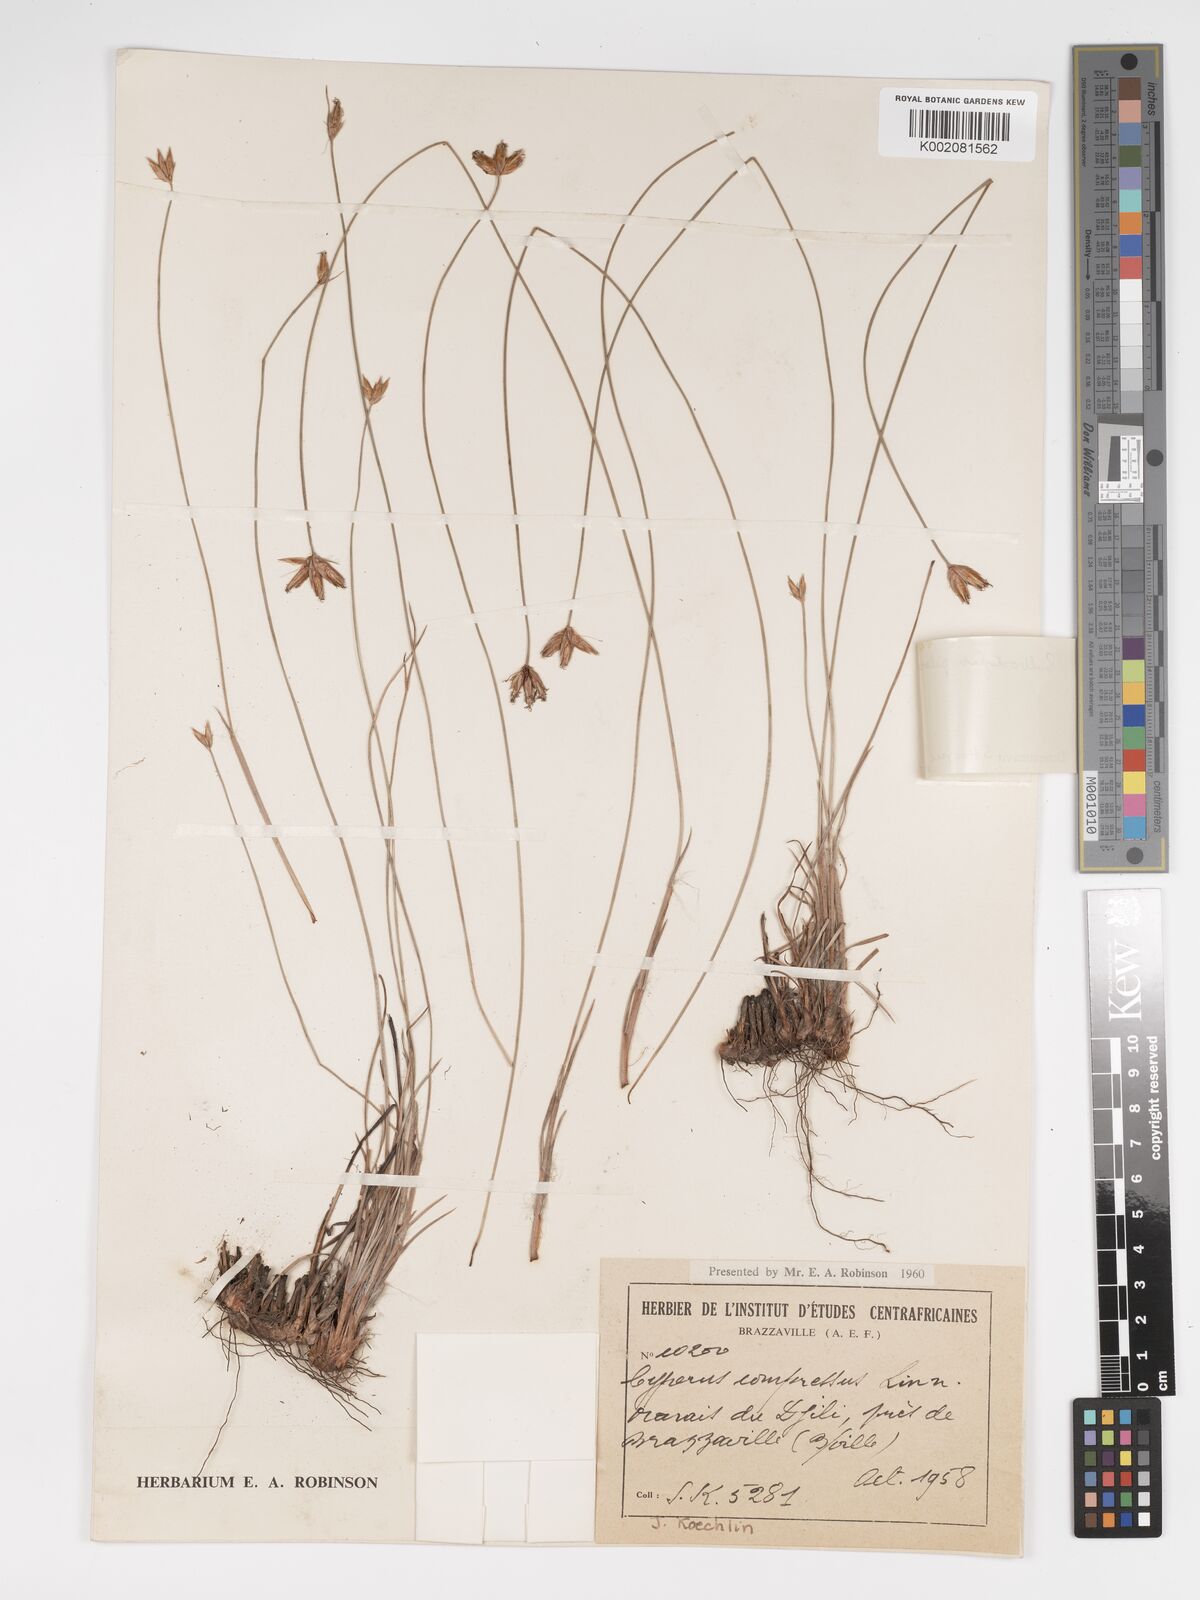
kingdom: Plantae
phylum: Tracheophyta
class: Liliopsida
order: Poales
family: Cyperaceae
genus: Bulbostylis
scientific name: Bulbostylis pilosa
